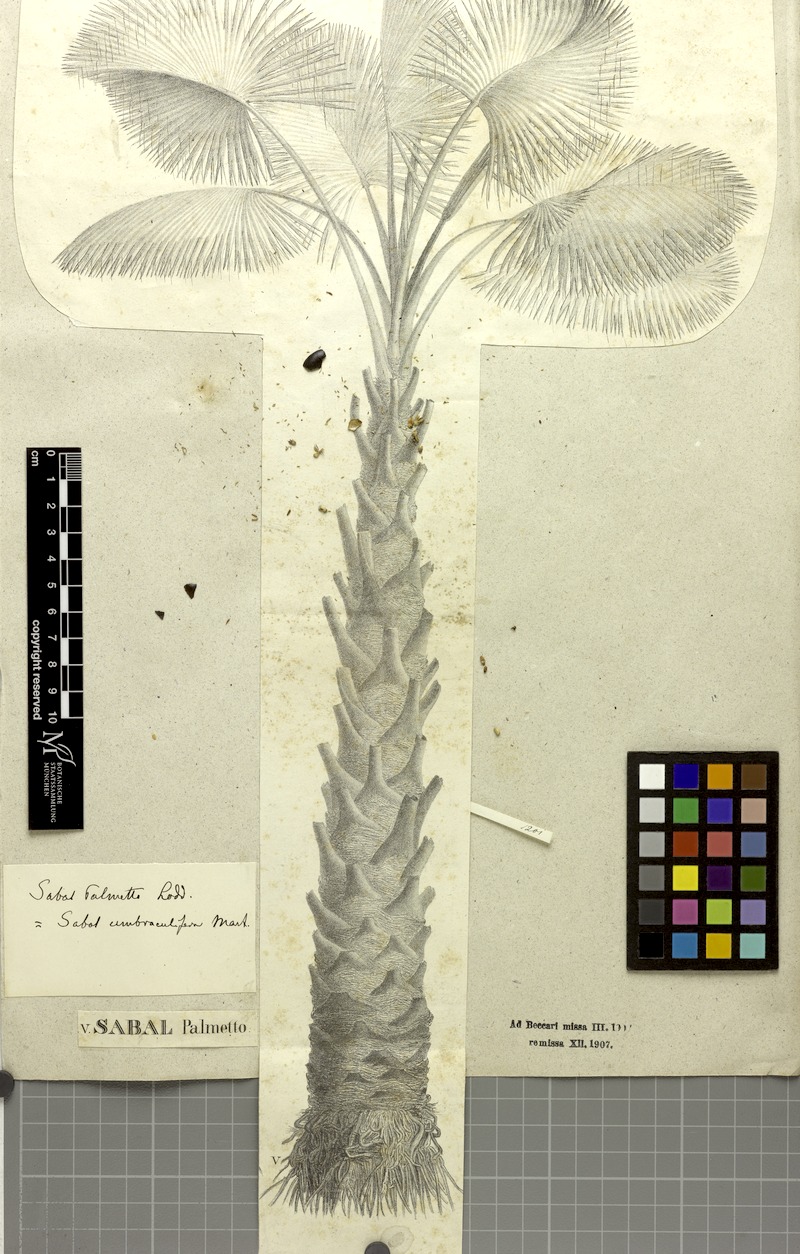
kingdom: Plantae
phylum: Tracheophyta
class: Liliopsida
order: Arecales
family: Arecaceae
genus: Sabal
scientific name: Sabal palmetto
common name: Blue palmetto
